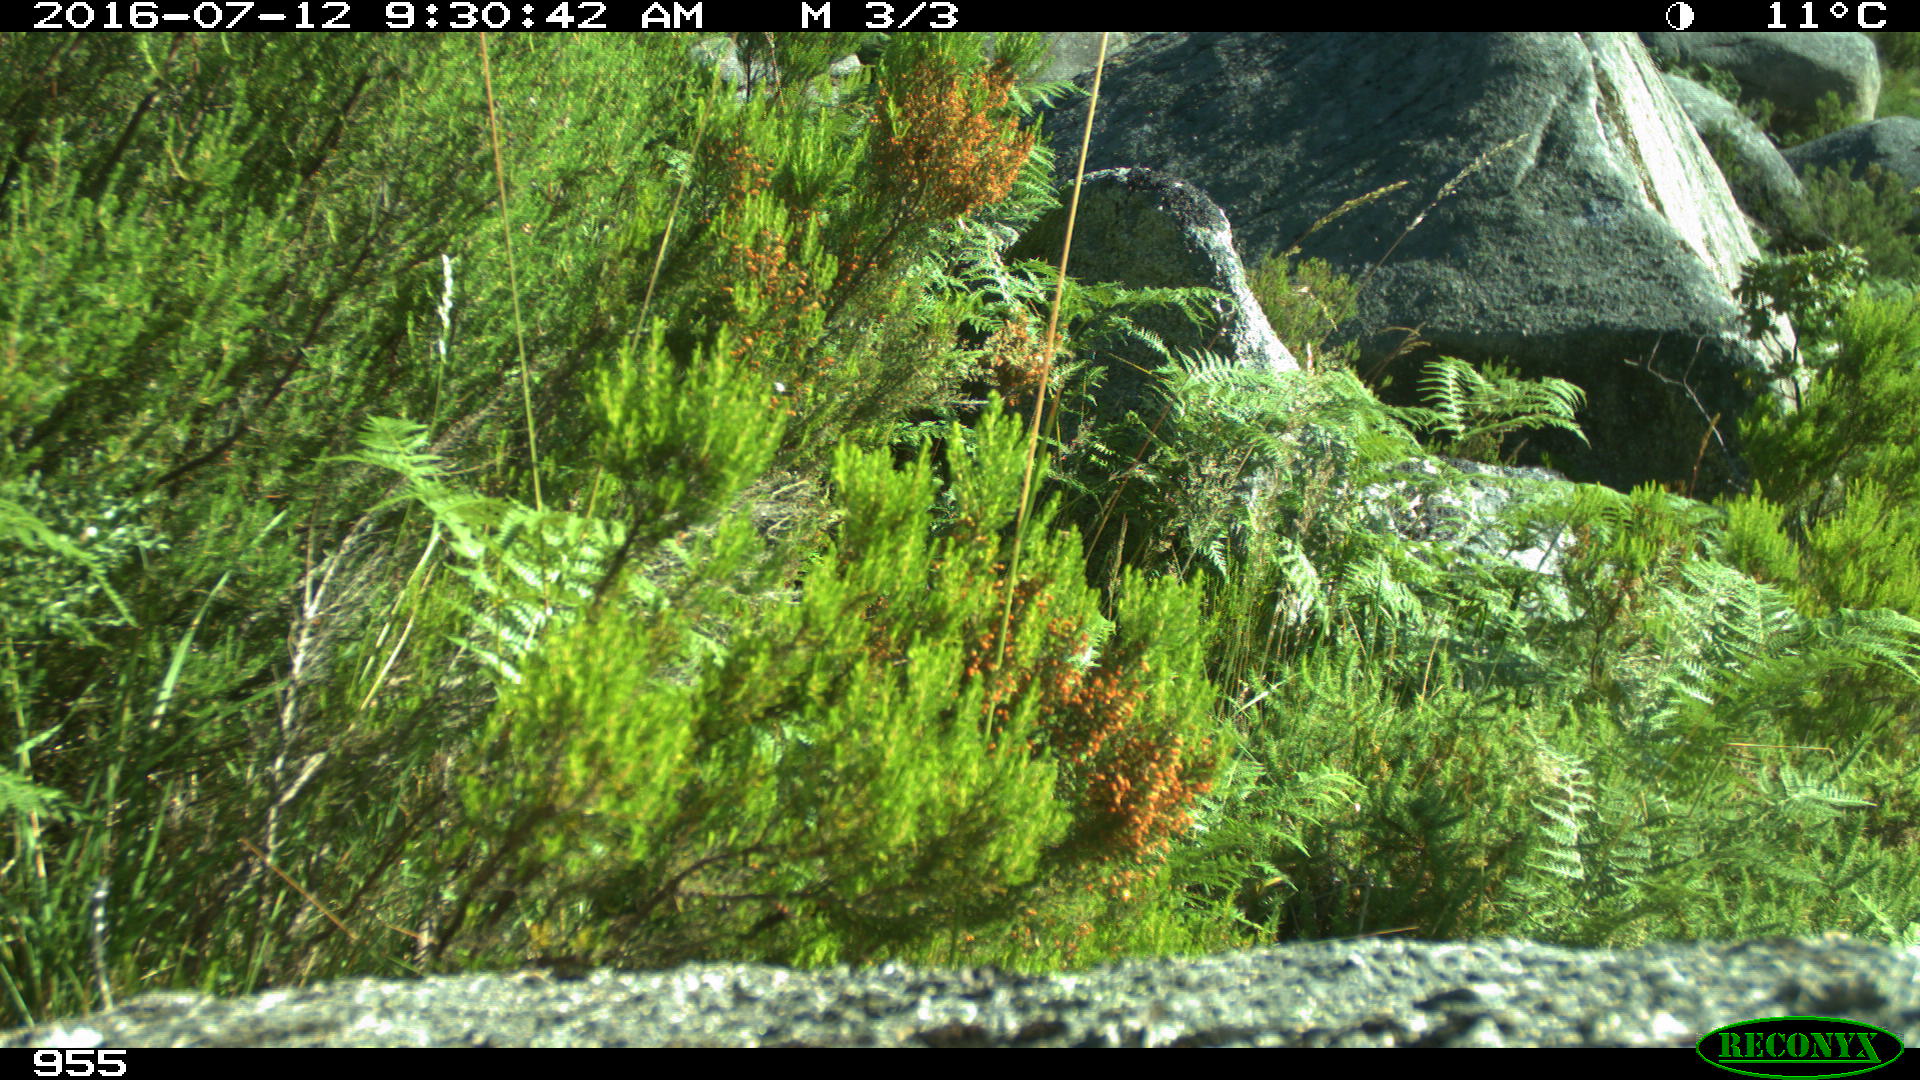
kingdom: Animalia
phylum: Chordata
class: Mammalia
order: Artiodactyla
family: Cervidae
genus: Capreolus
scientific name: Capreolus capreolus
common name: Western roe deer
